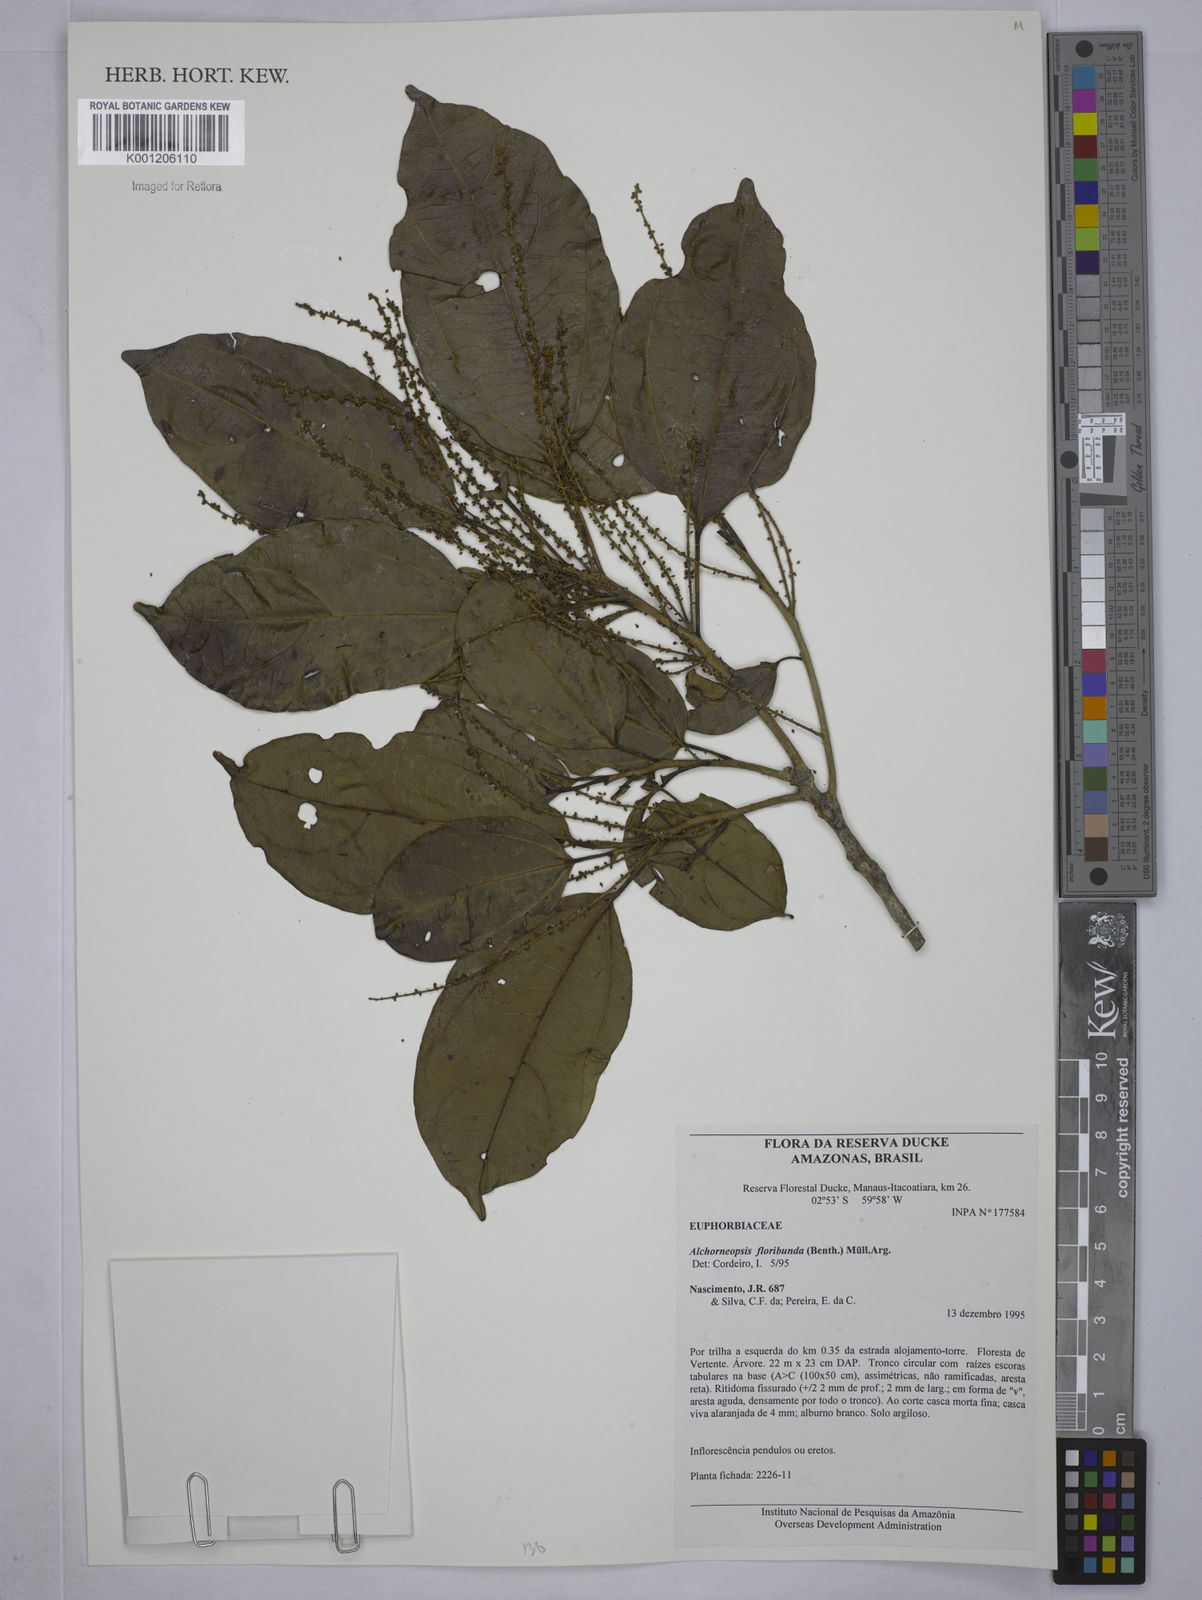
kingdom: Plantae
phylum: Tracheophyta
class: Magnoliopsida
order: Malpighiales
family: Euphorbiaceae
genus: Alchorneopsis
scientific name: Alchorneopsis
